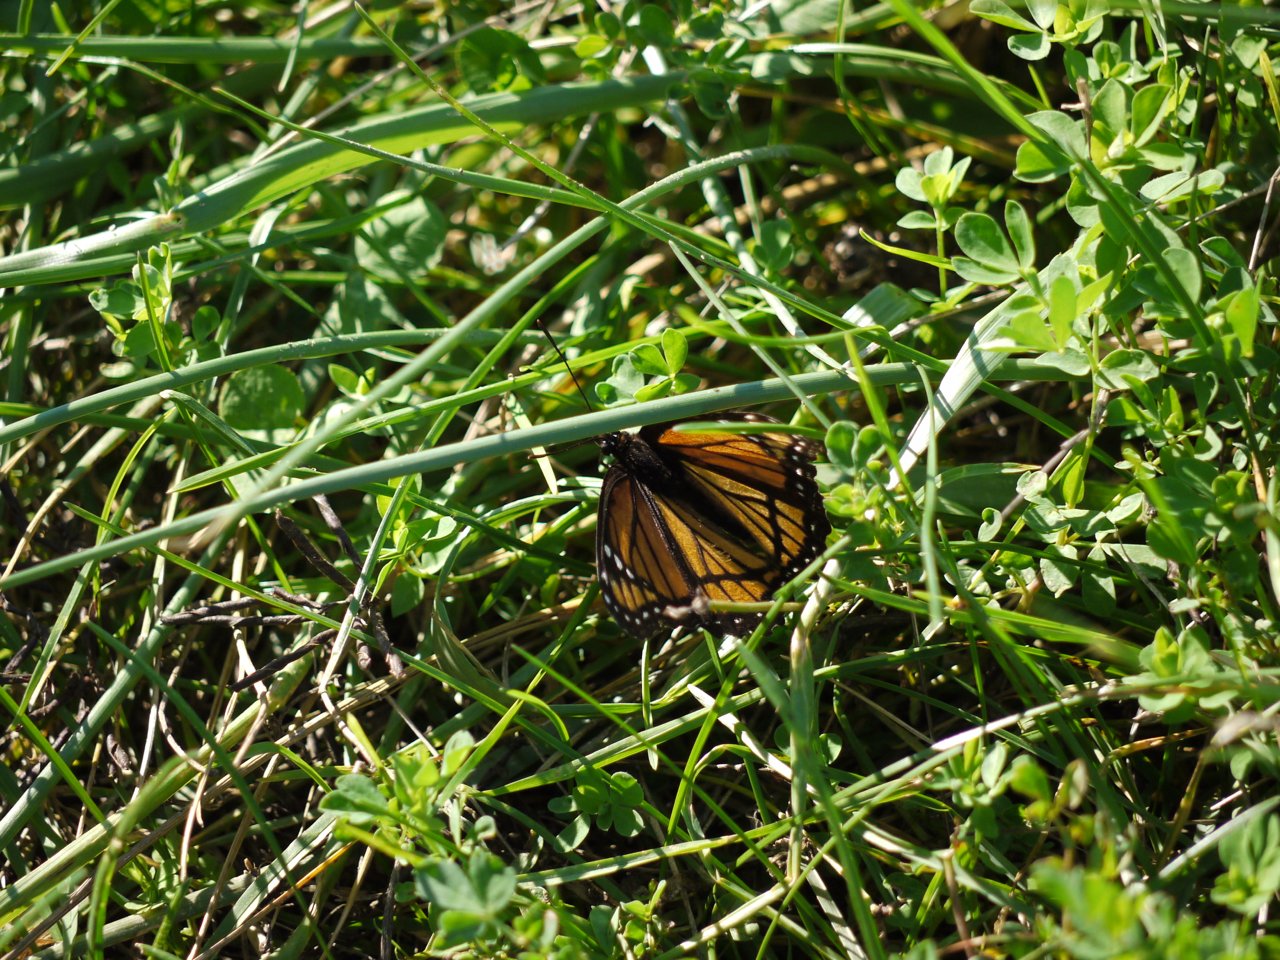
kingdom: Animalia
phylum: Arthropoda
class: Insecta
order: Lepidoptera
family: Nymphalidae
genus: Limenitis
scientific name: Limenitis archippus
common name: Viceroy
